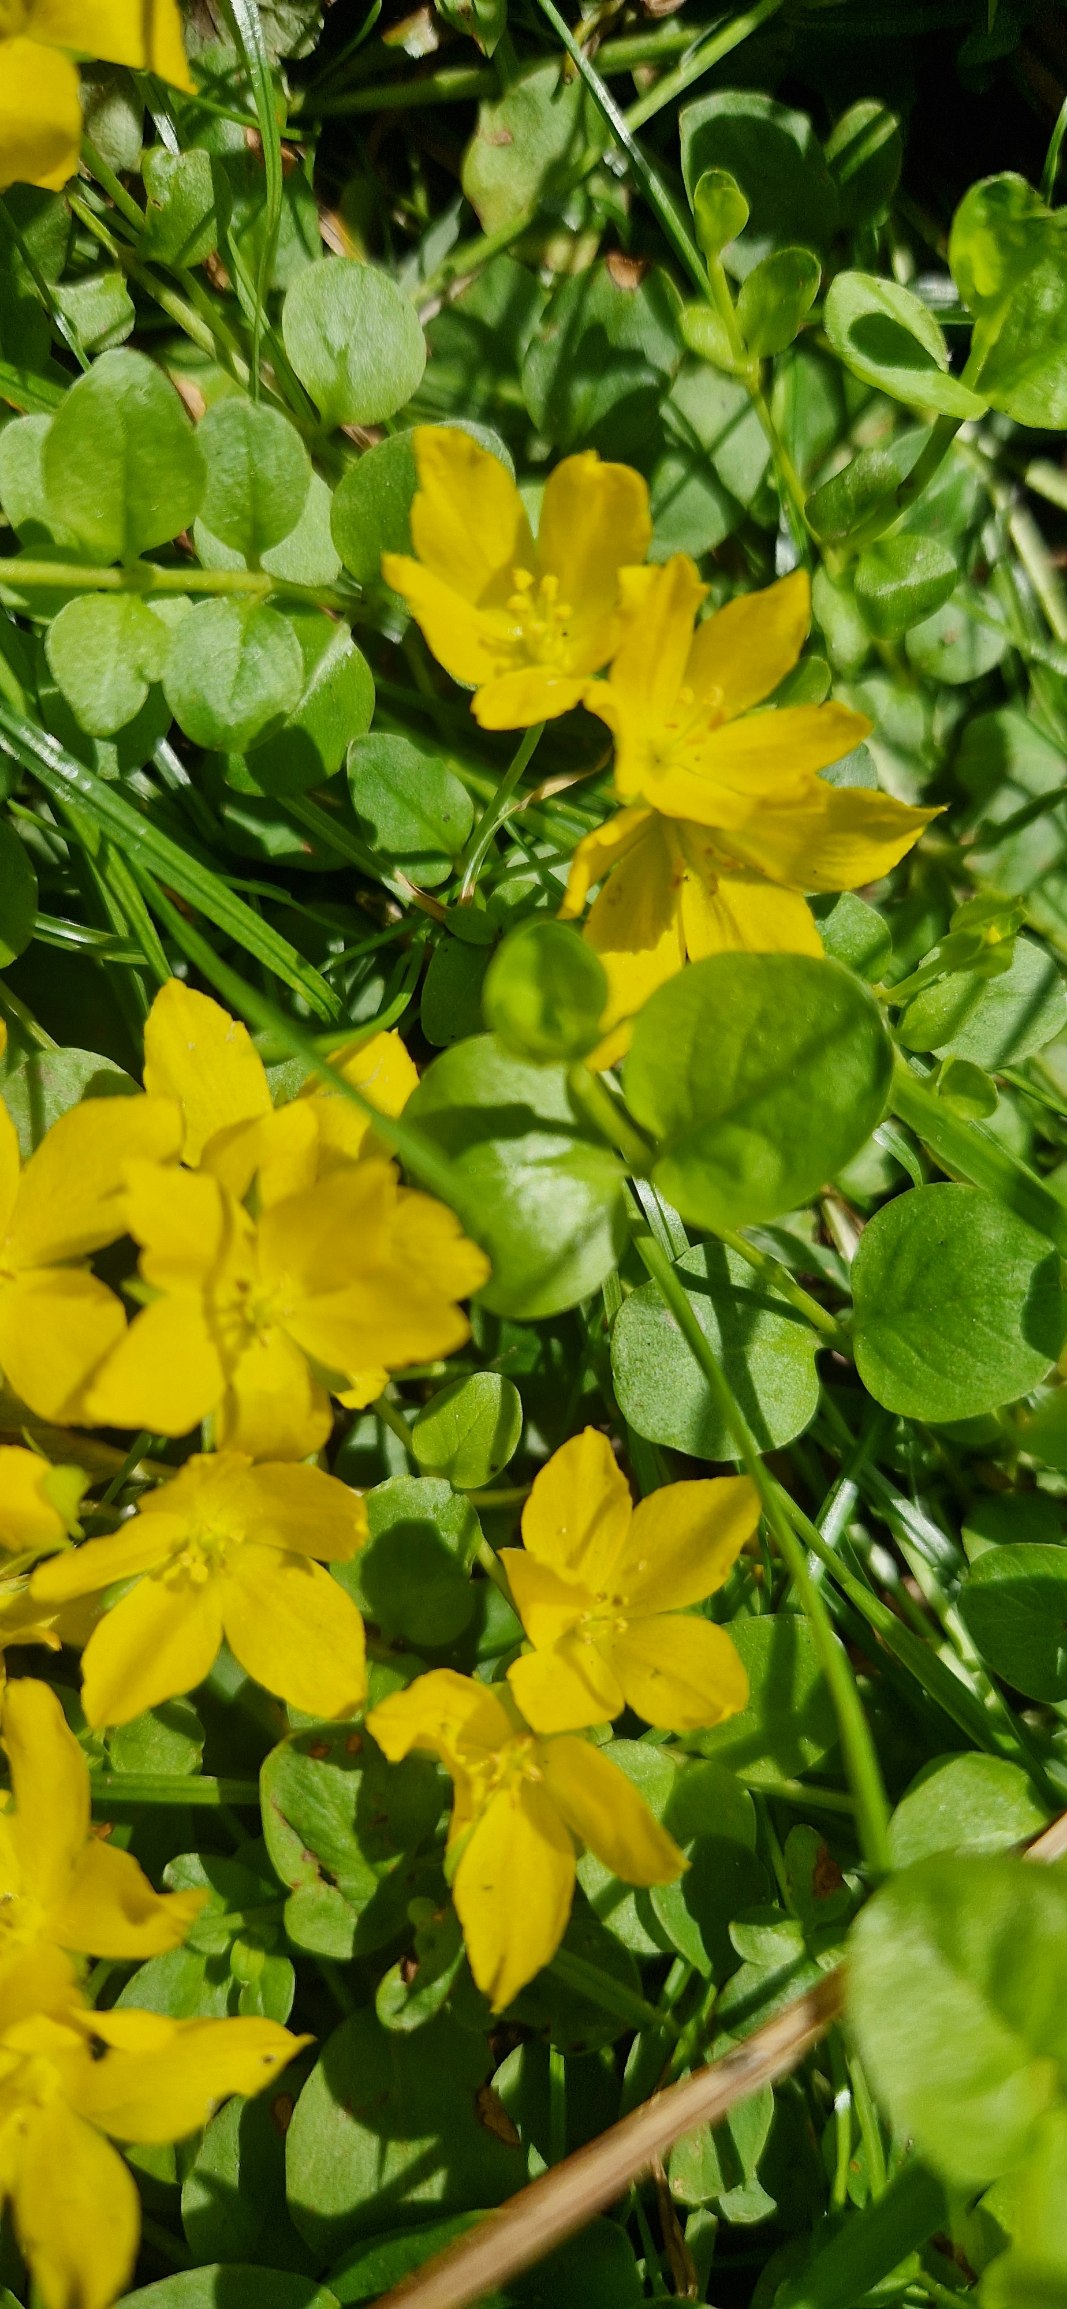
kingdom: Plantae
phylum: Tracheophyta
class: Magnoliopsida
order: Ericales
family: Primulaceae
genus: Lysimachia
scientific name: Lysimachia nummularia
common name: Pengebladet fredløs
